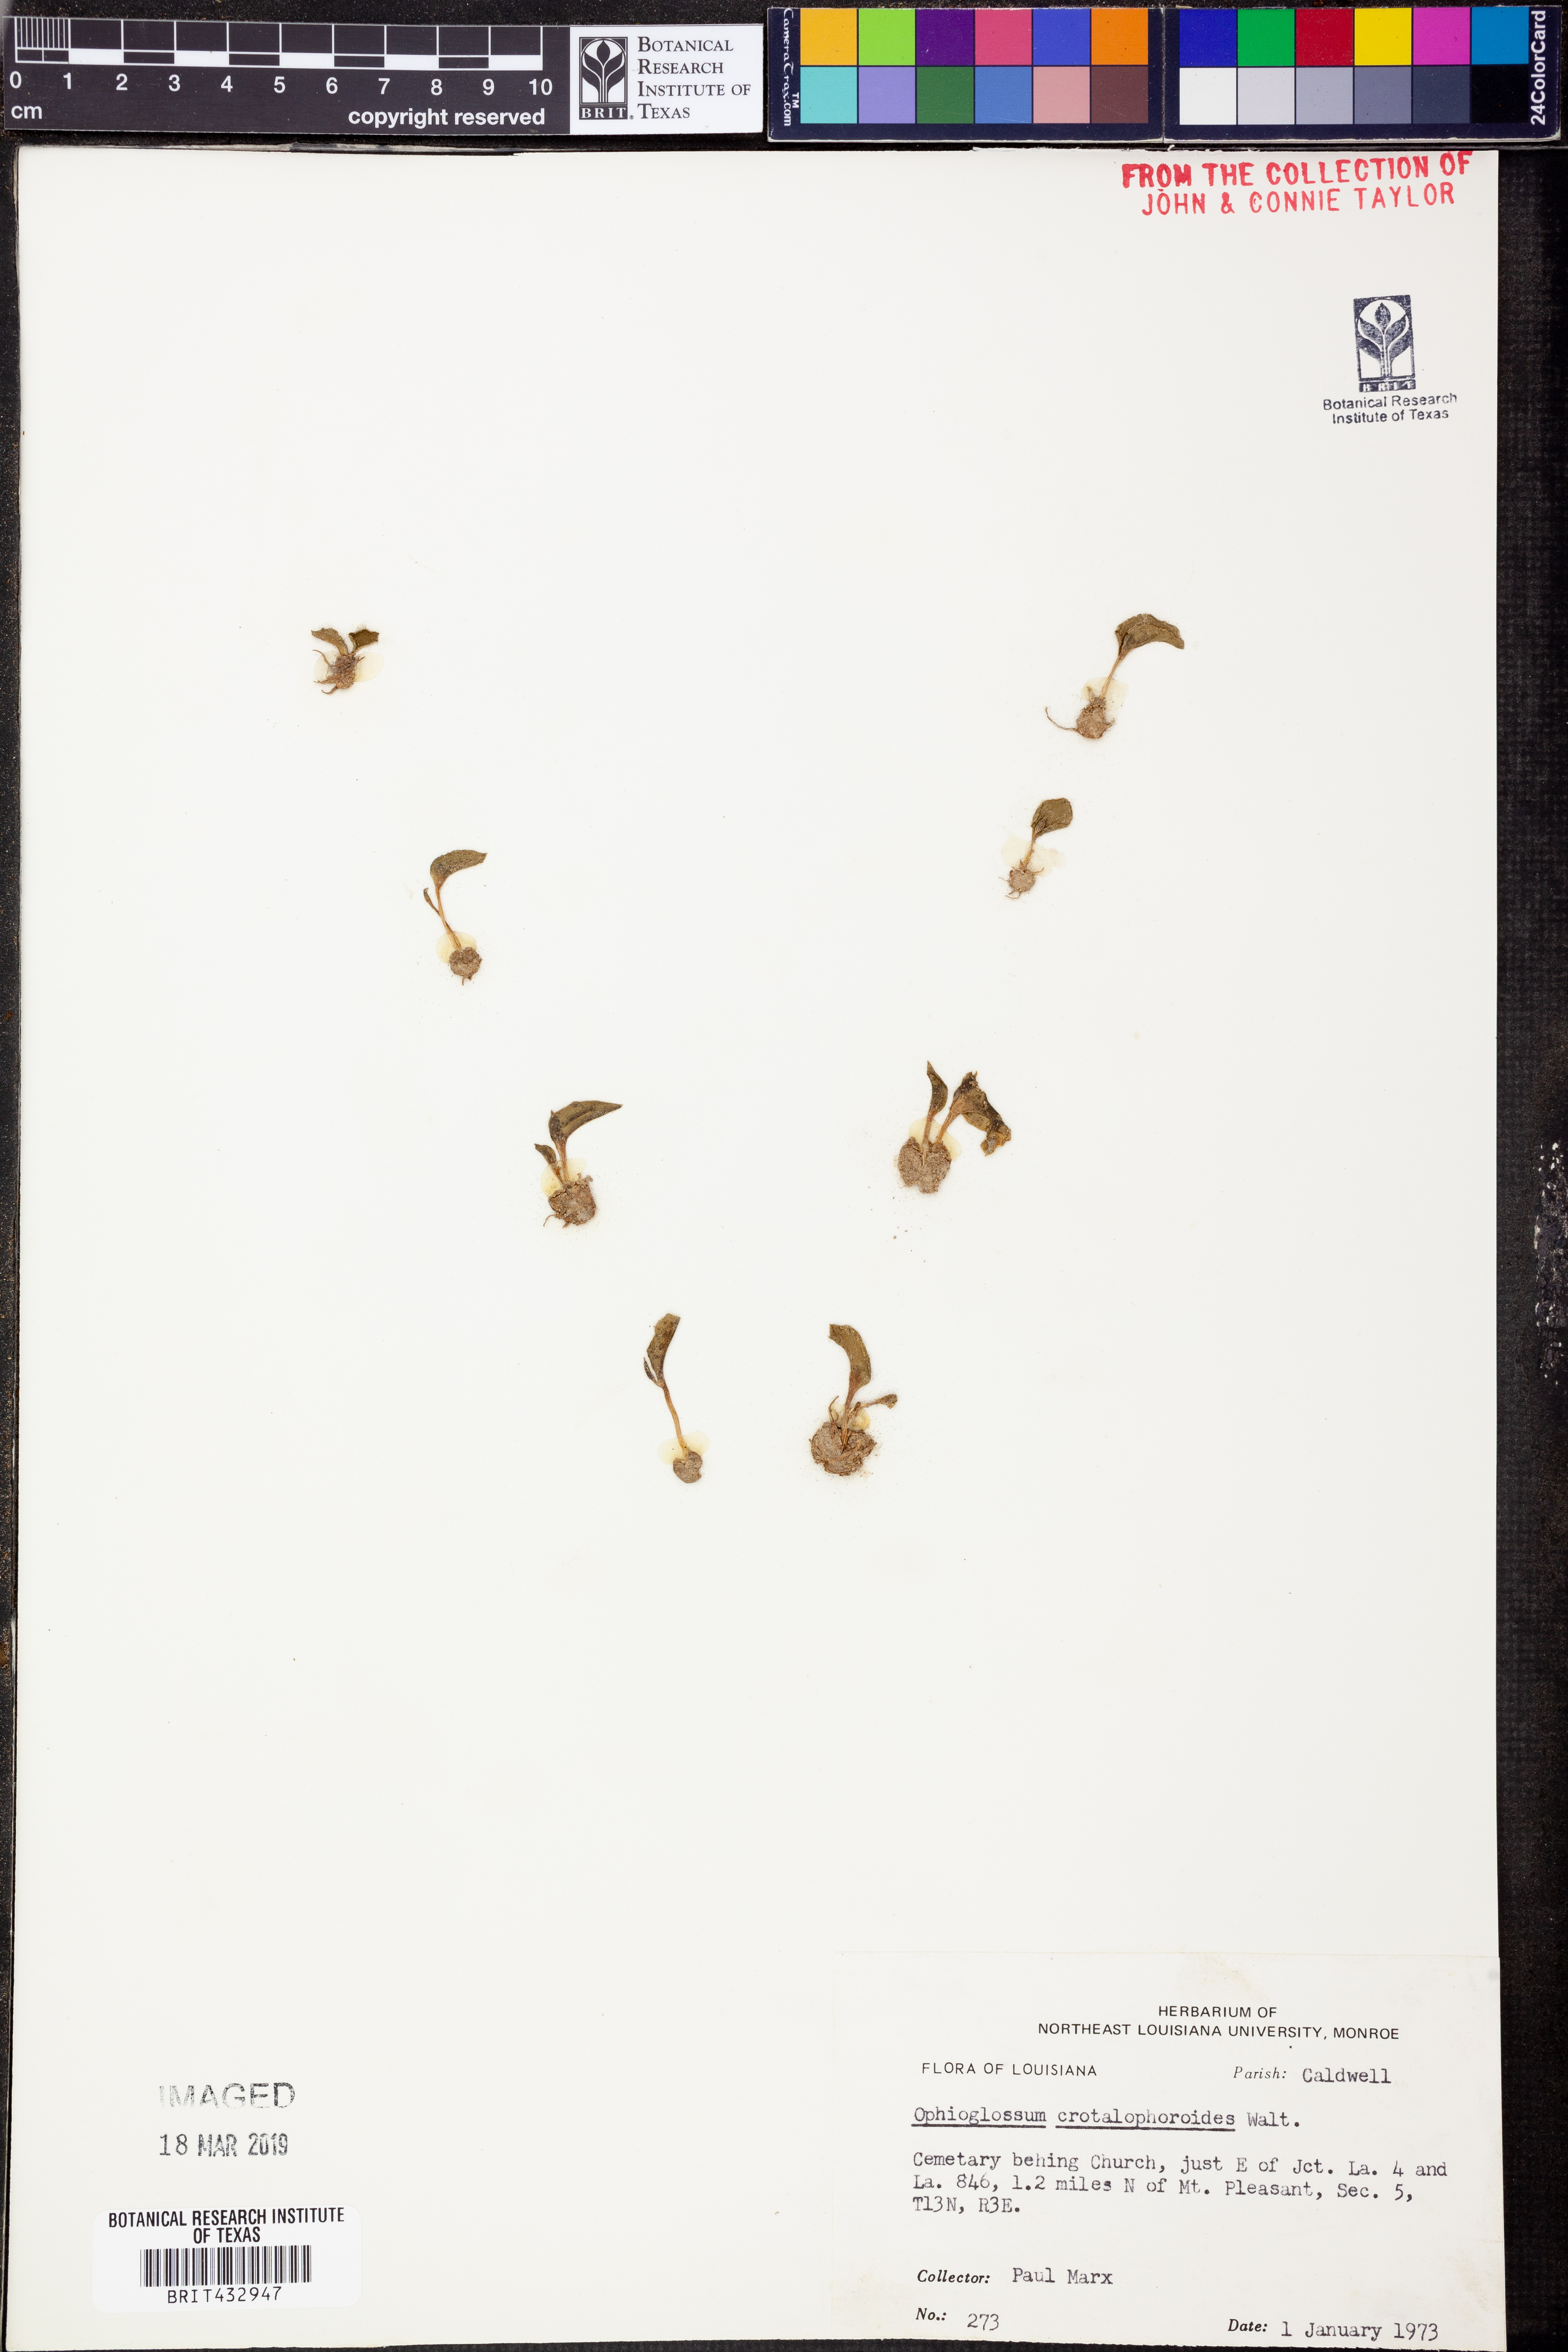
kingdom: Plantae
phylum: Tracheophyta
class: Polypodiopsida
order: Ophioglossales
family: Ophioglossaceae
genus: Ophioglossum
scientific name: Ophioglossum crotalophoroides
